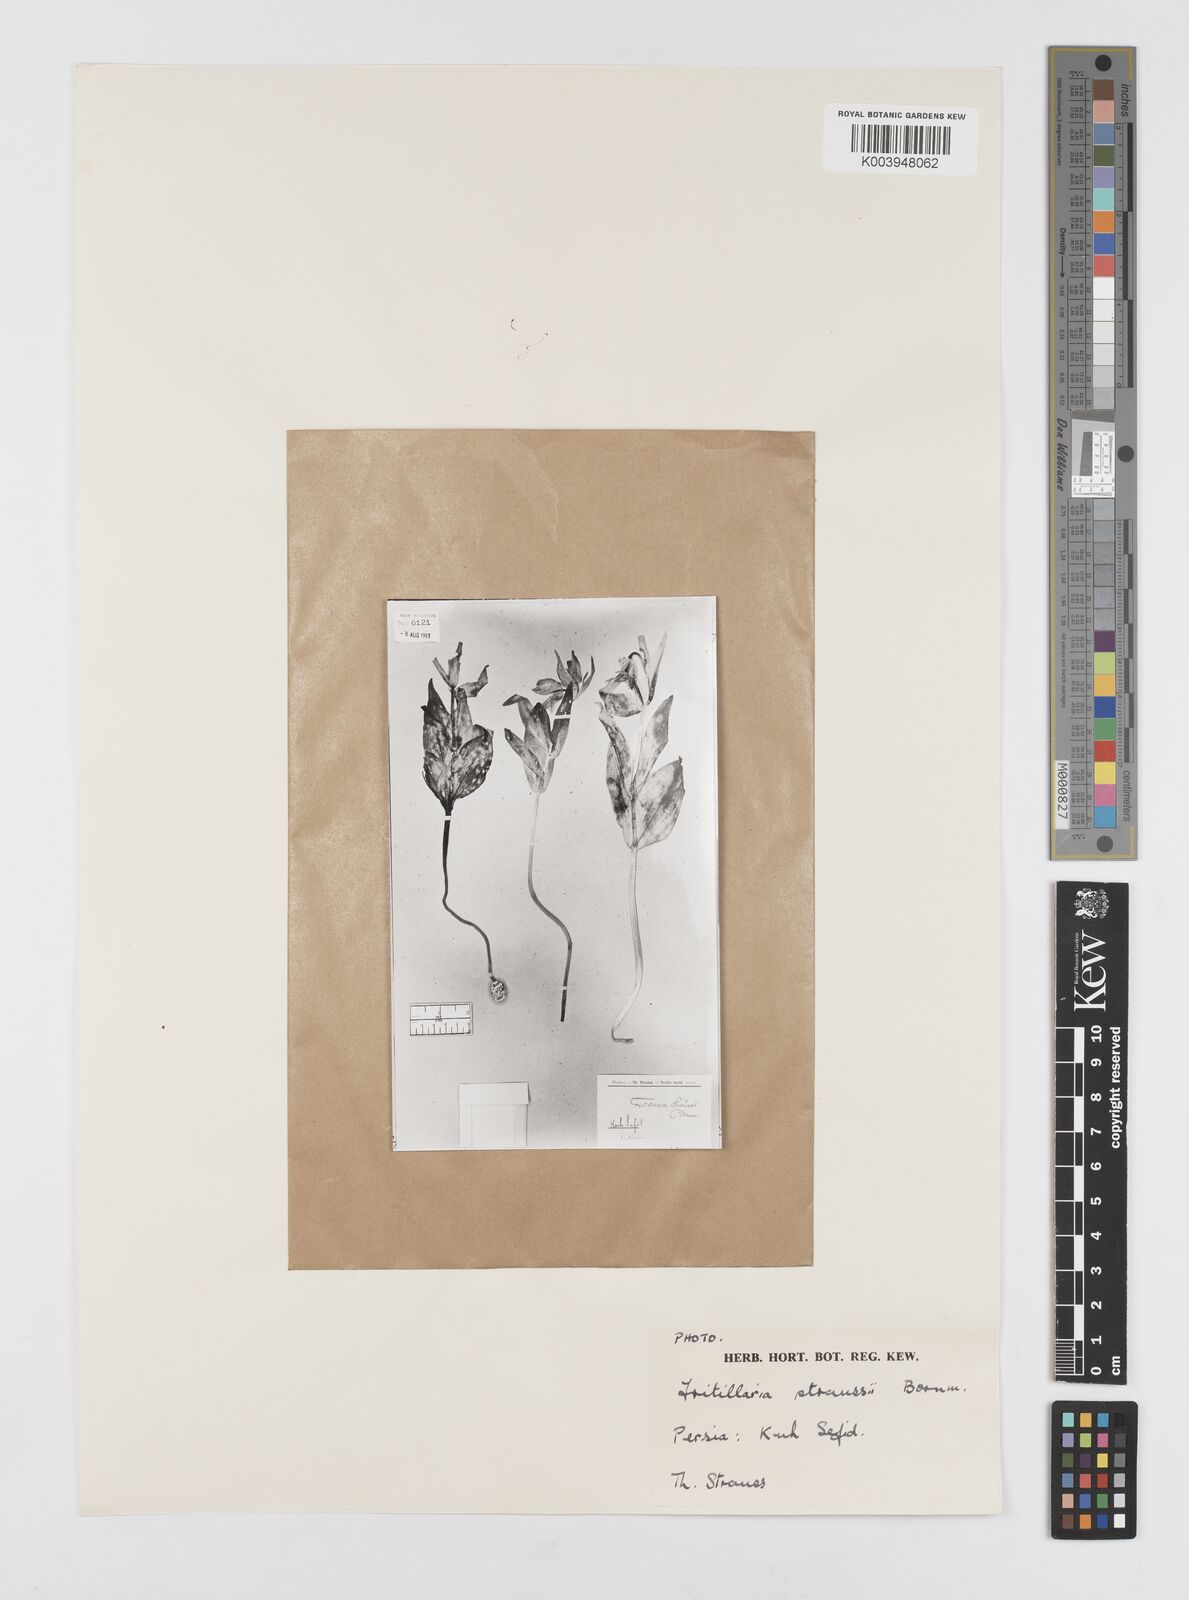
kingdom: Plantae
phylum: Tracheophyta
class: Liliopsida
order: Liliales
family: Liliaceae
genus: Fritillaria
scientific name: Fritillaria straussii
